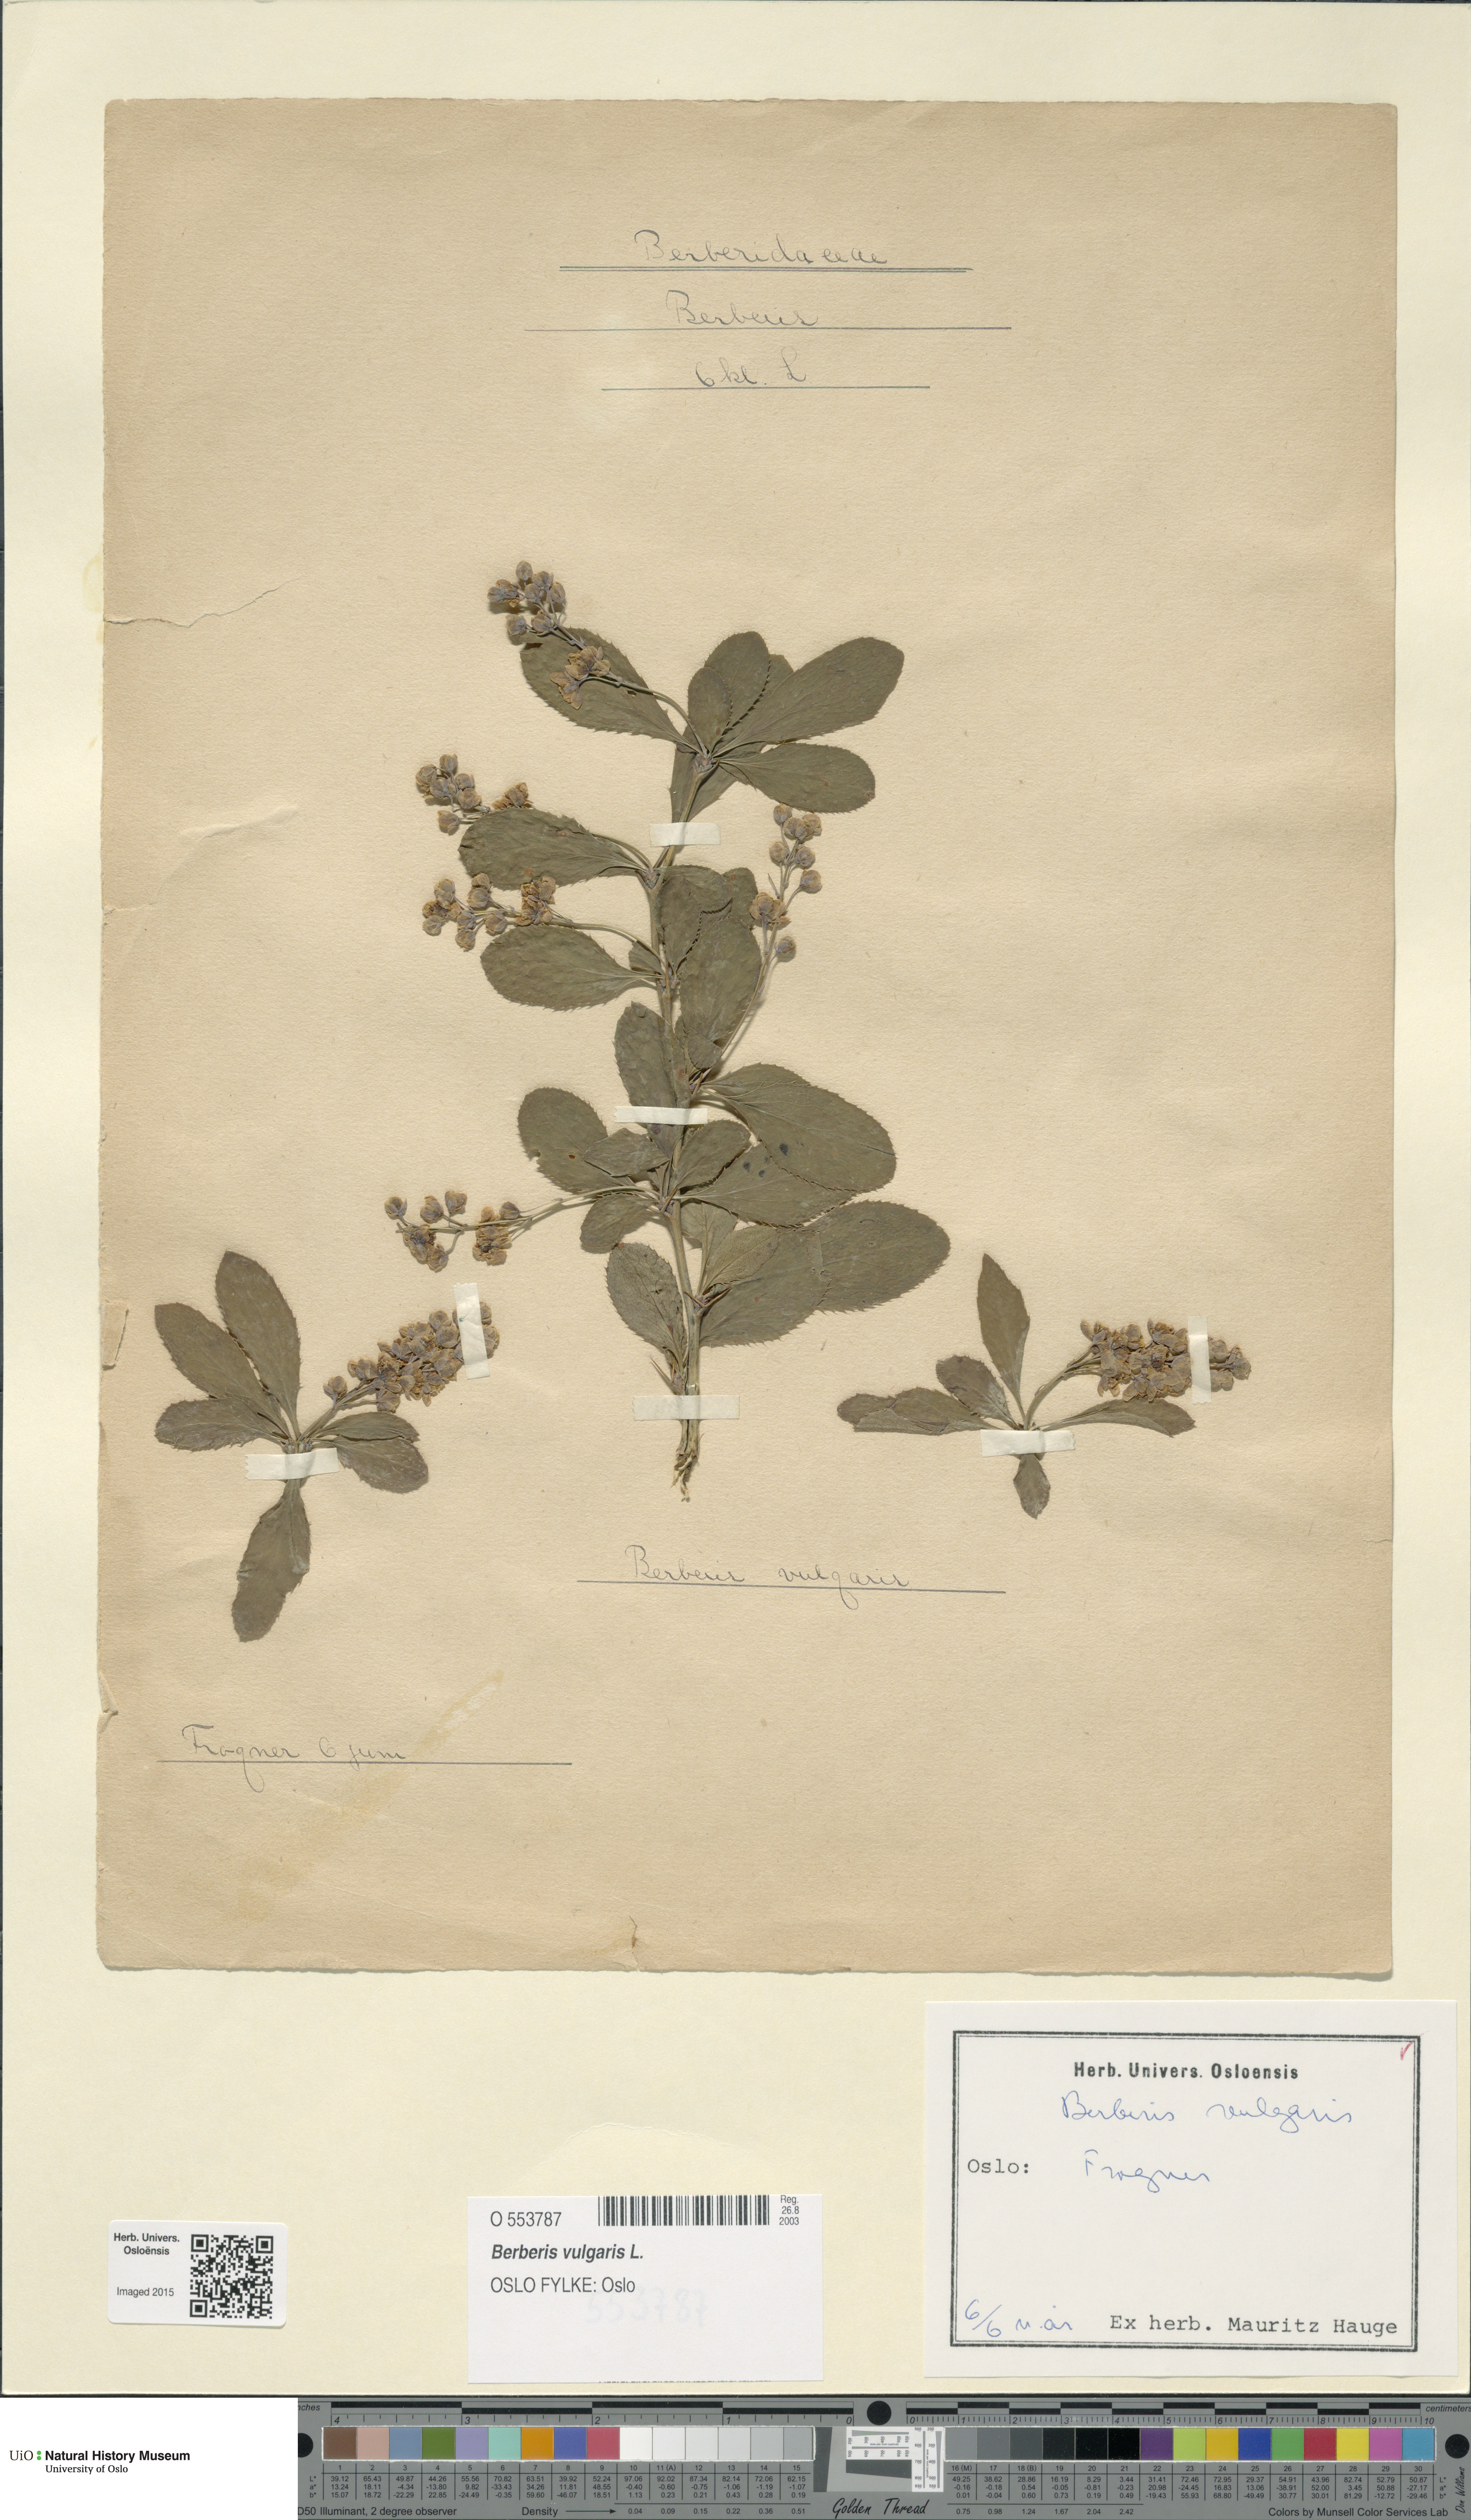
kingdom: Plantae
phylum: Tracheophyta
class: Magnoliopsida
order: Ranunculales
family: Berberidaceae
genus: Berberis
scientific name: Berberis vulgaris
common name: Barberry
